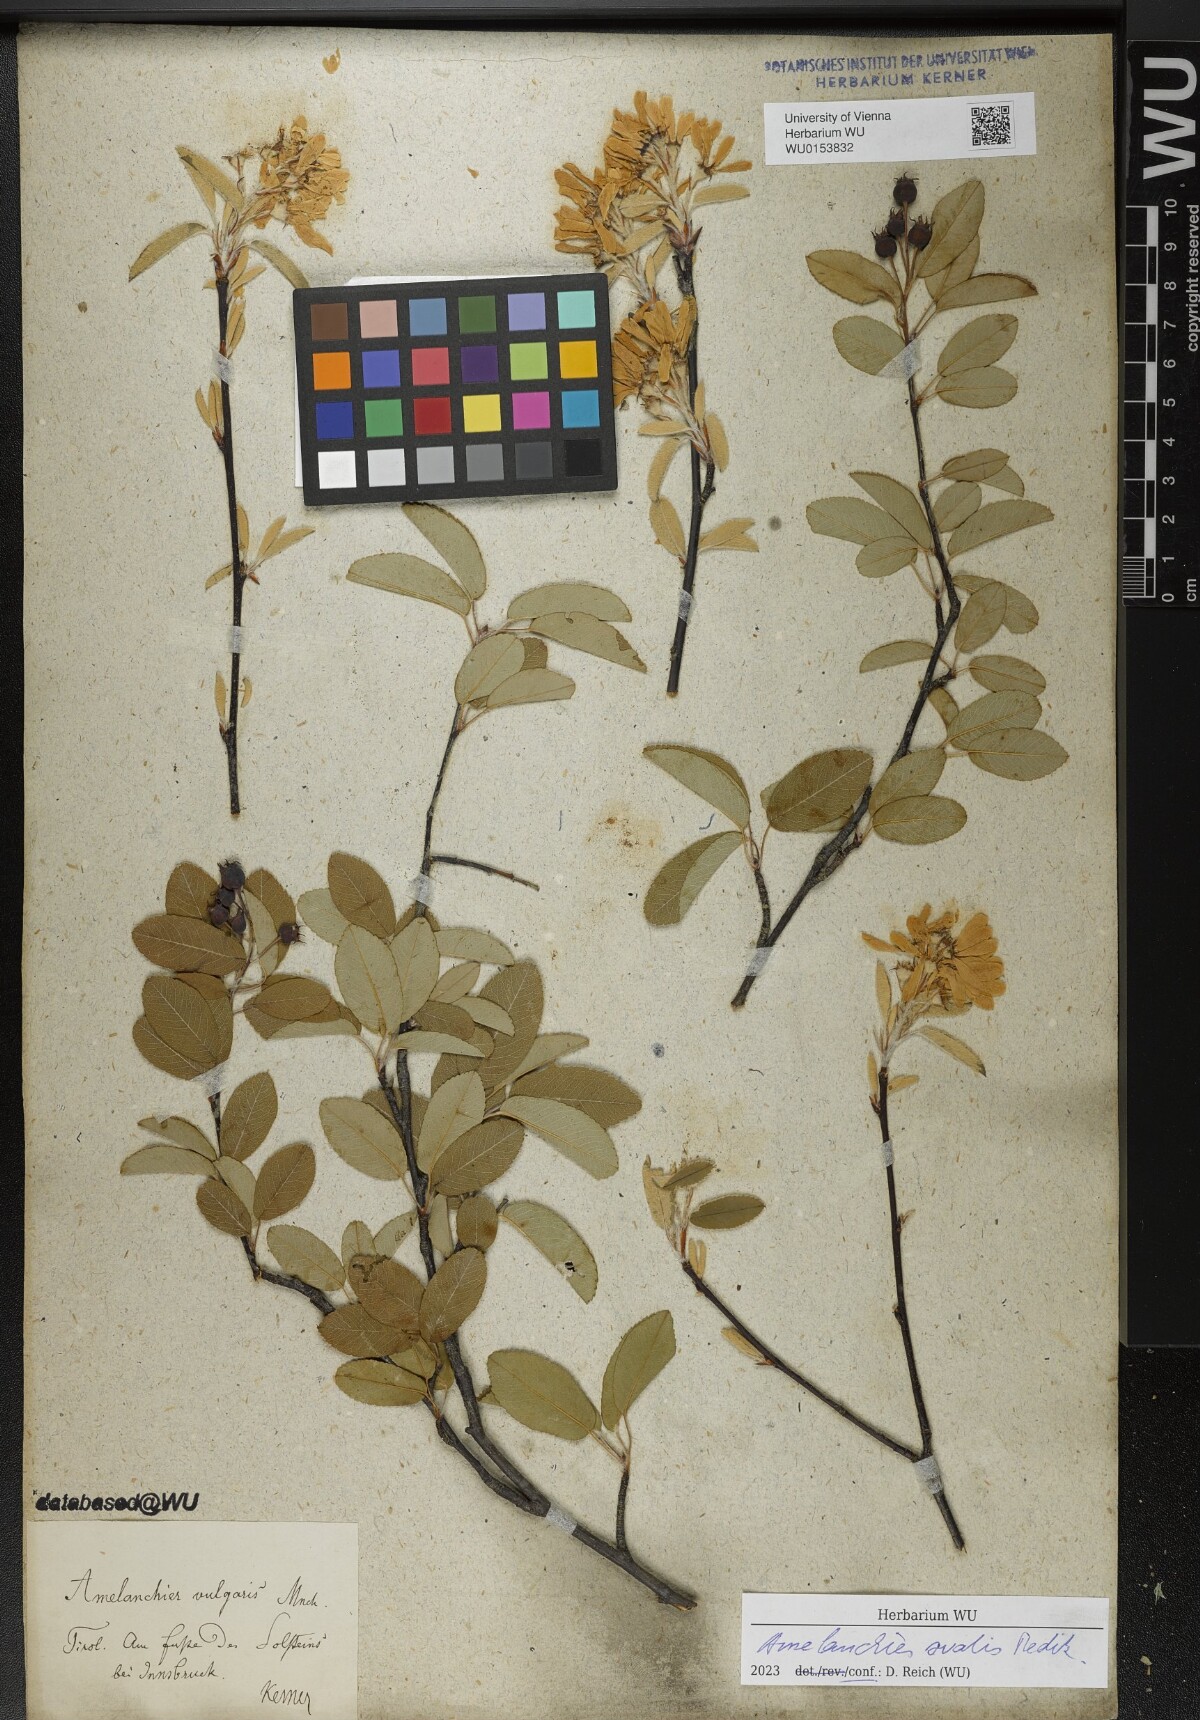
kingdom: Plantae
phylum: Tracheophyta
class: Magnoliopsida
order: Rosales
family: Rosaceae
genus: Amelanchier
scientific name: Amelanchier ovalis
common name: Serviceberry
